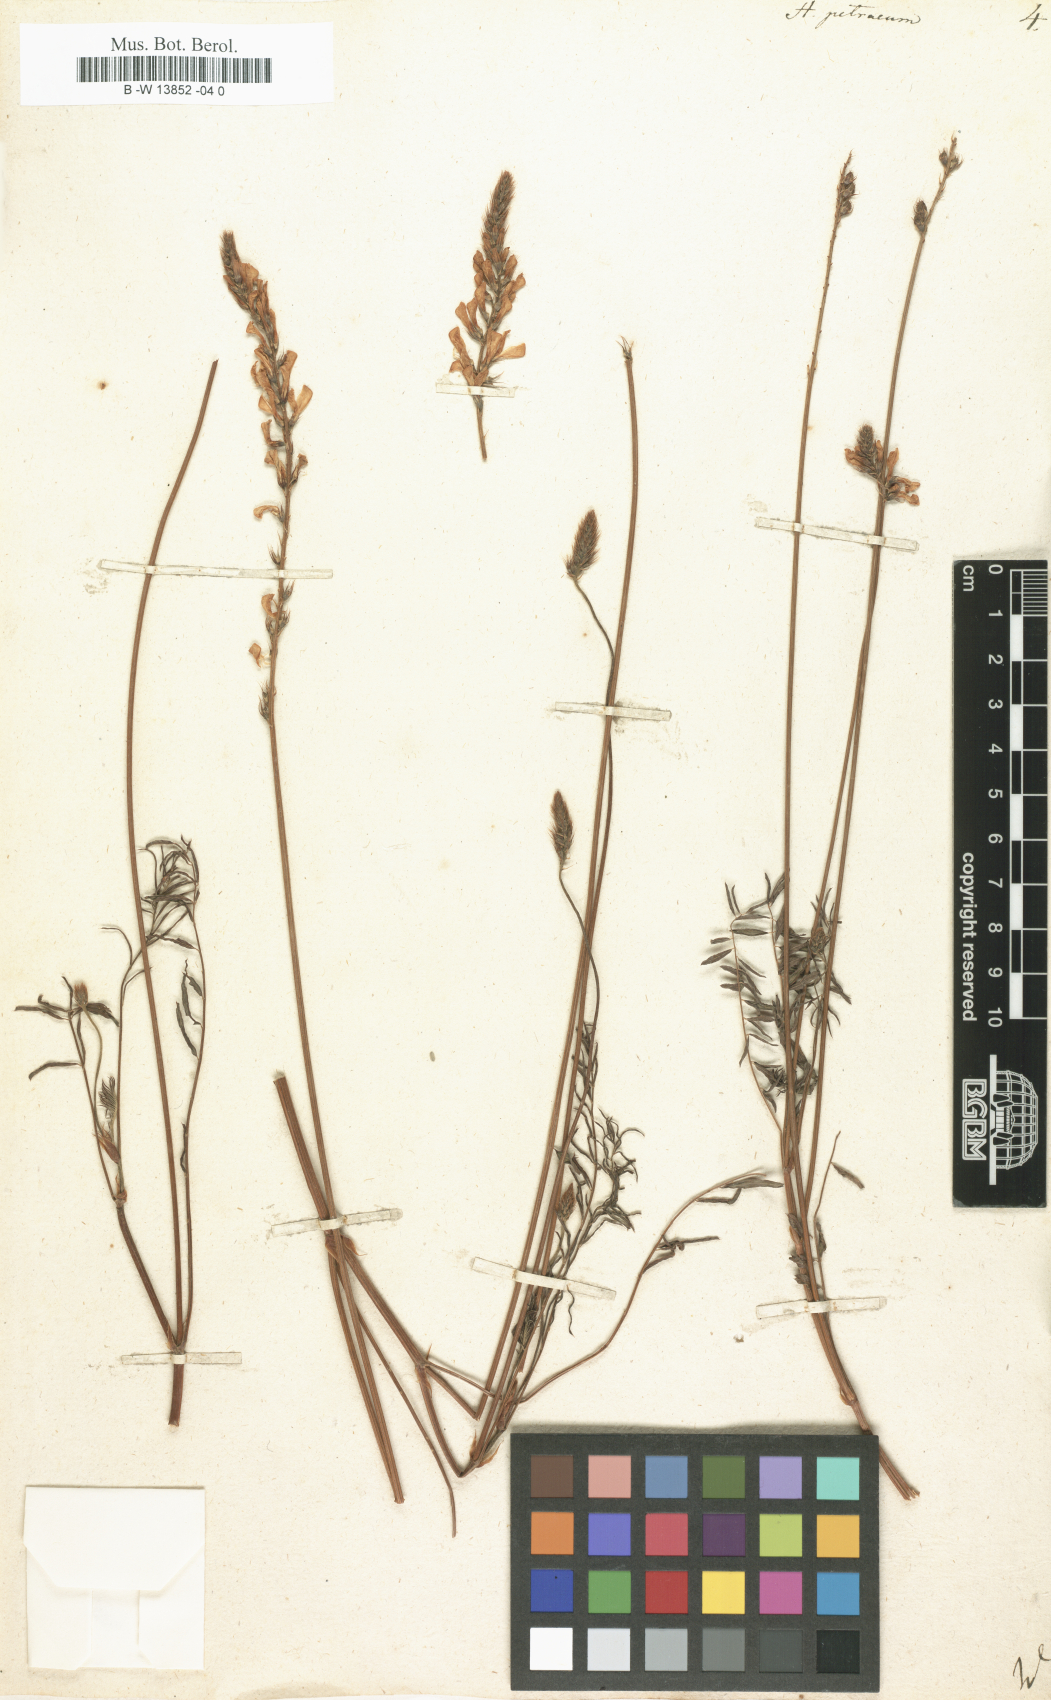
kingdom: Plantae
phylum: Tracheophyta
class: Magnoliopsida
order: Fabales
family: Fabaceae
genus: Onobrychis
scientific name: Onobrychis petraea
